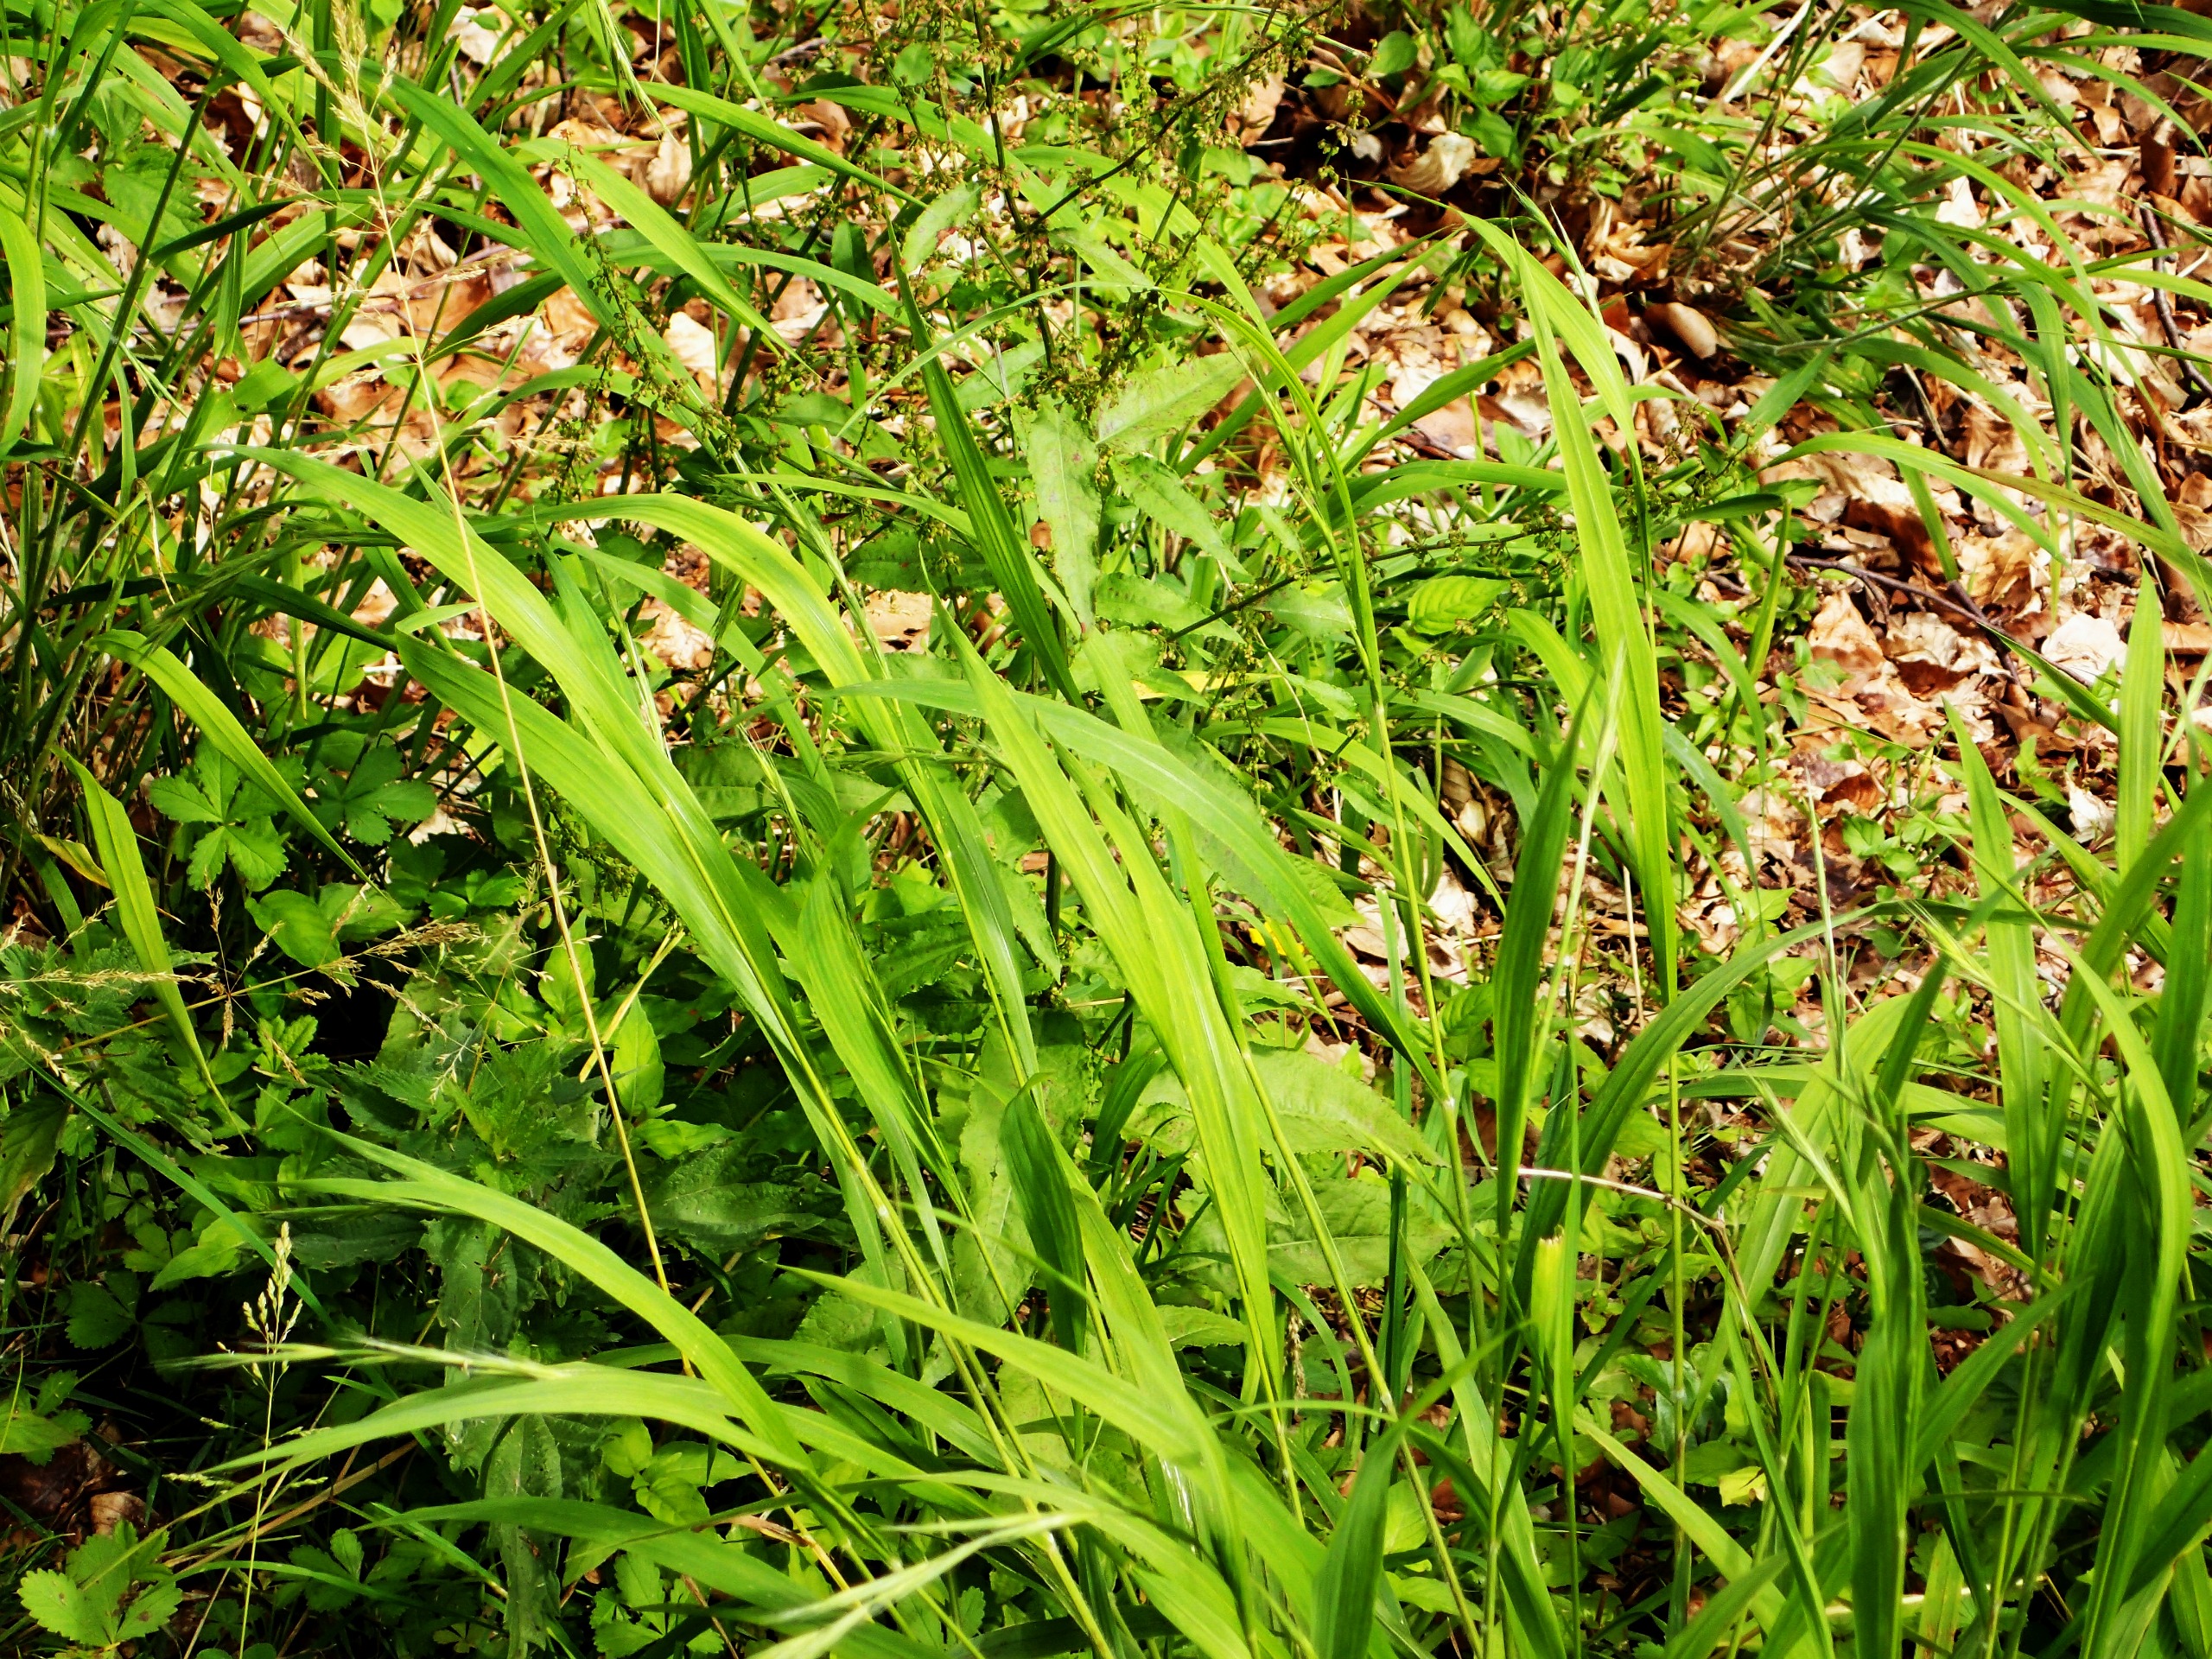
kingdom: Plantae
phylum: Tracheophyta
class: Liliopsida
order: Poales
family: Poaceae
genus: Brachypodium
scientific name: Brachypodium sylvaticum
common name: Skov-stilkaks
